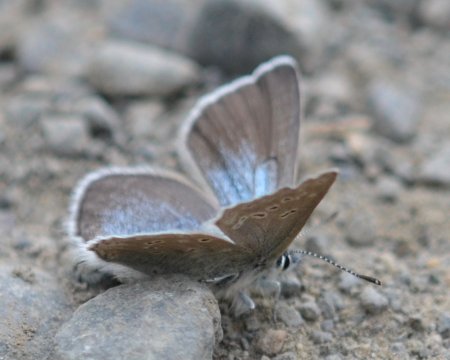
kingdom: Animalia
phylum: Arthropoda
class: Insecta
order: Lepidoptera
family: Lycaenidae
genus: Elkalyce
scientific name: Elkalyce amyntula
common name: Western Tailed-Blue
